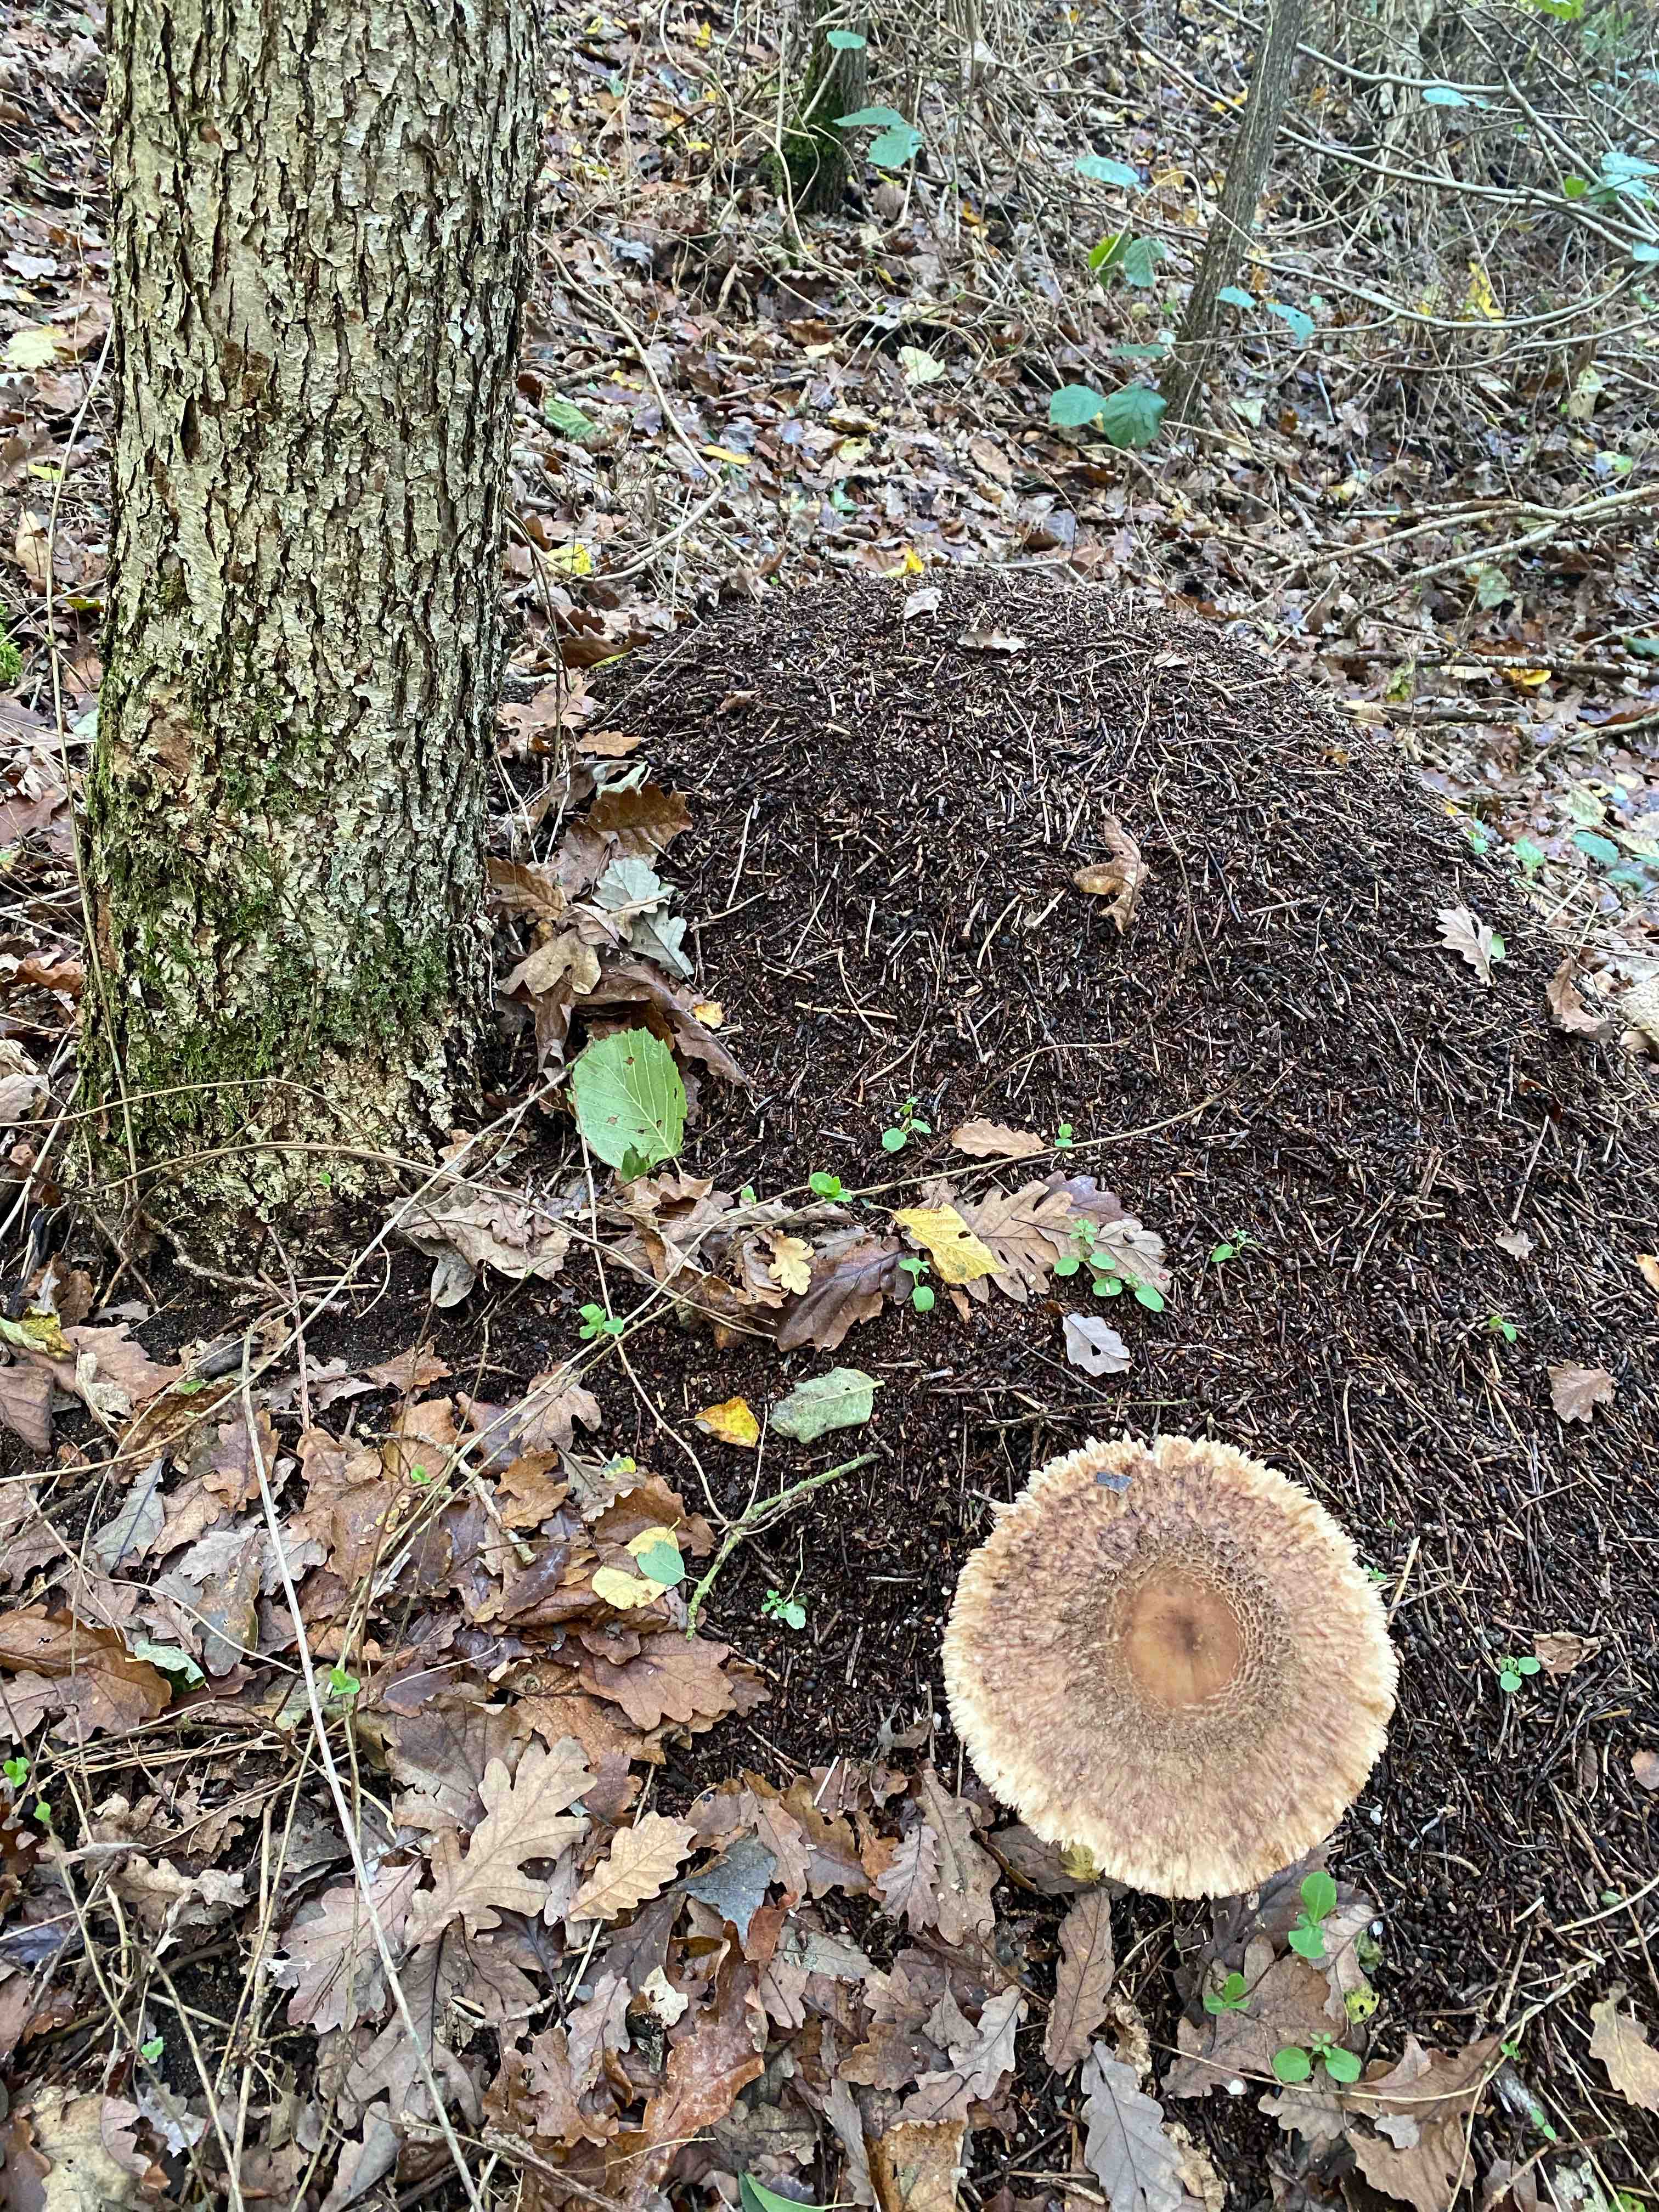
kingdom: Fungi
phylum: Basidiomycota
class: Agaricomycetes
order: Agaricales
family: Agaricaceae
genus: Chlorophyllum
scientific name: Chlorophyllum olivieri
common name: almindelig rabarberhat
